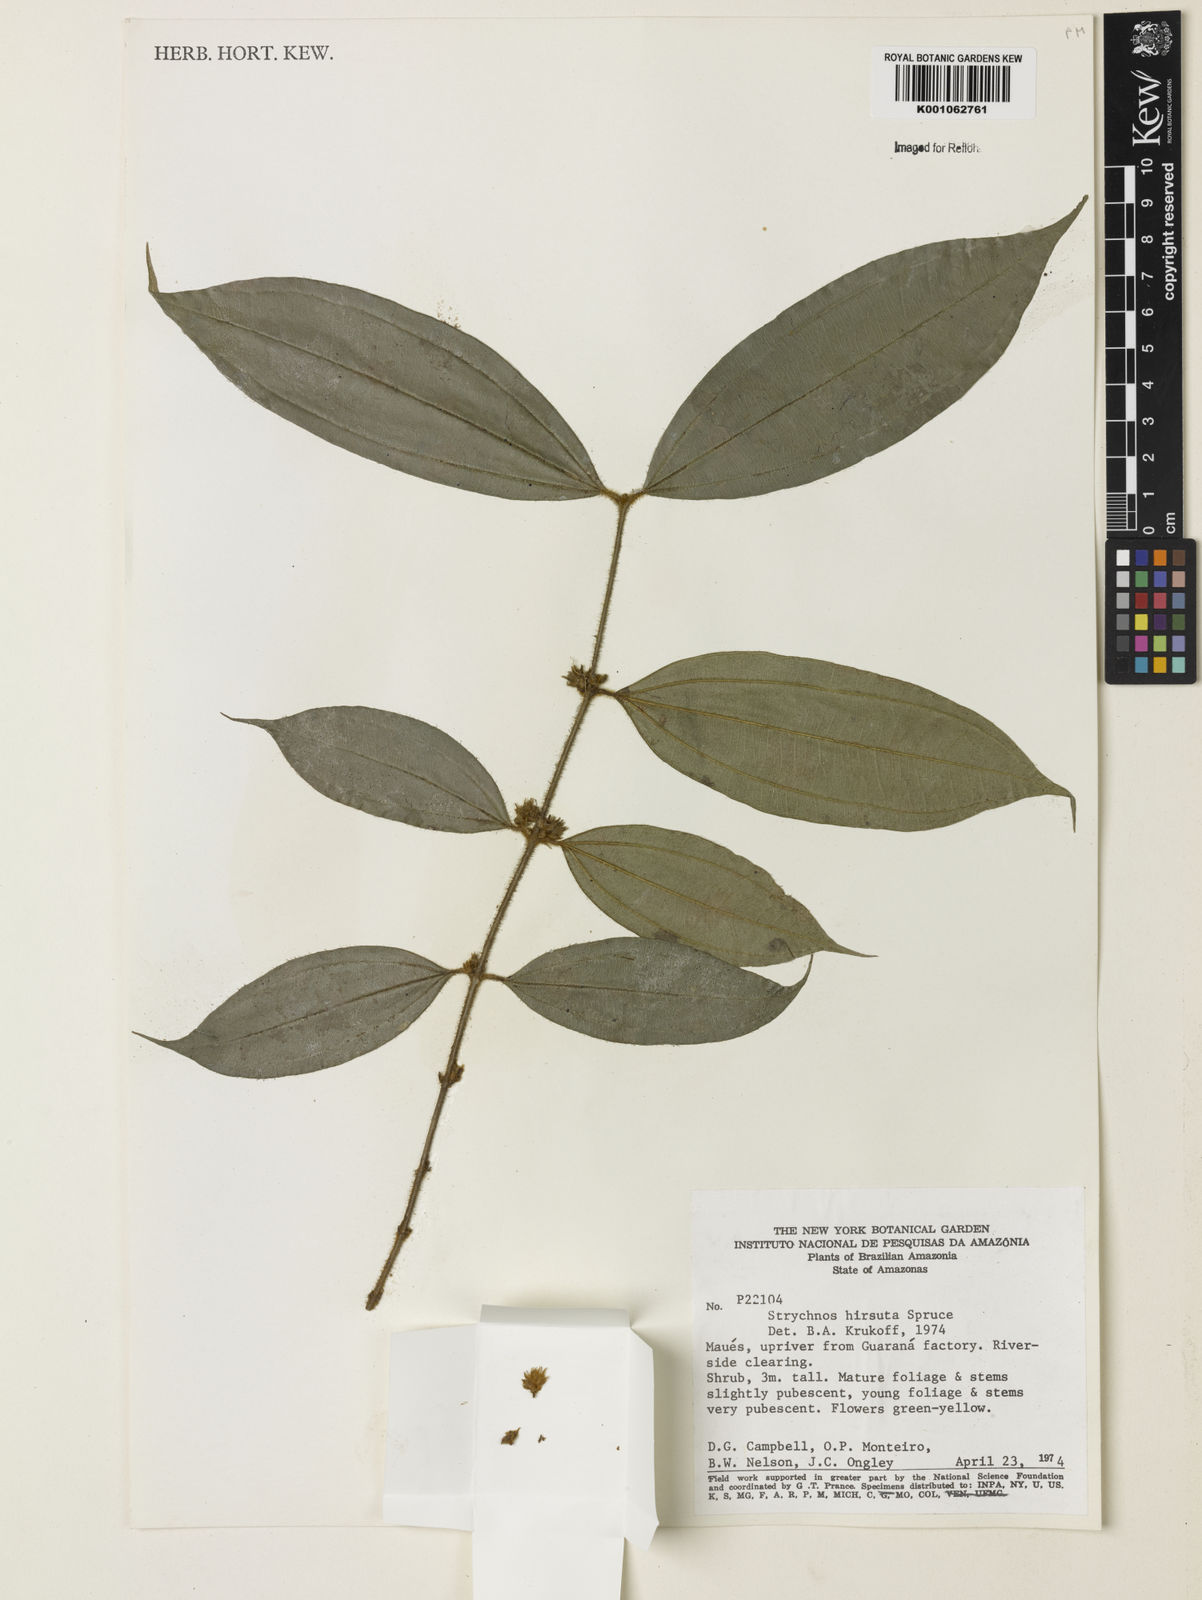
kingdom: Plantae
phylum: Tracheophyta
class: Magnoliopsida
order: Gentianales
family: Loganiaceae
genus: Strychnos
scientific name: Strychnos hirsuta
